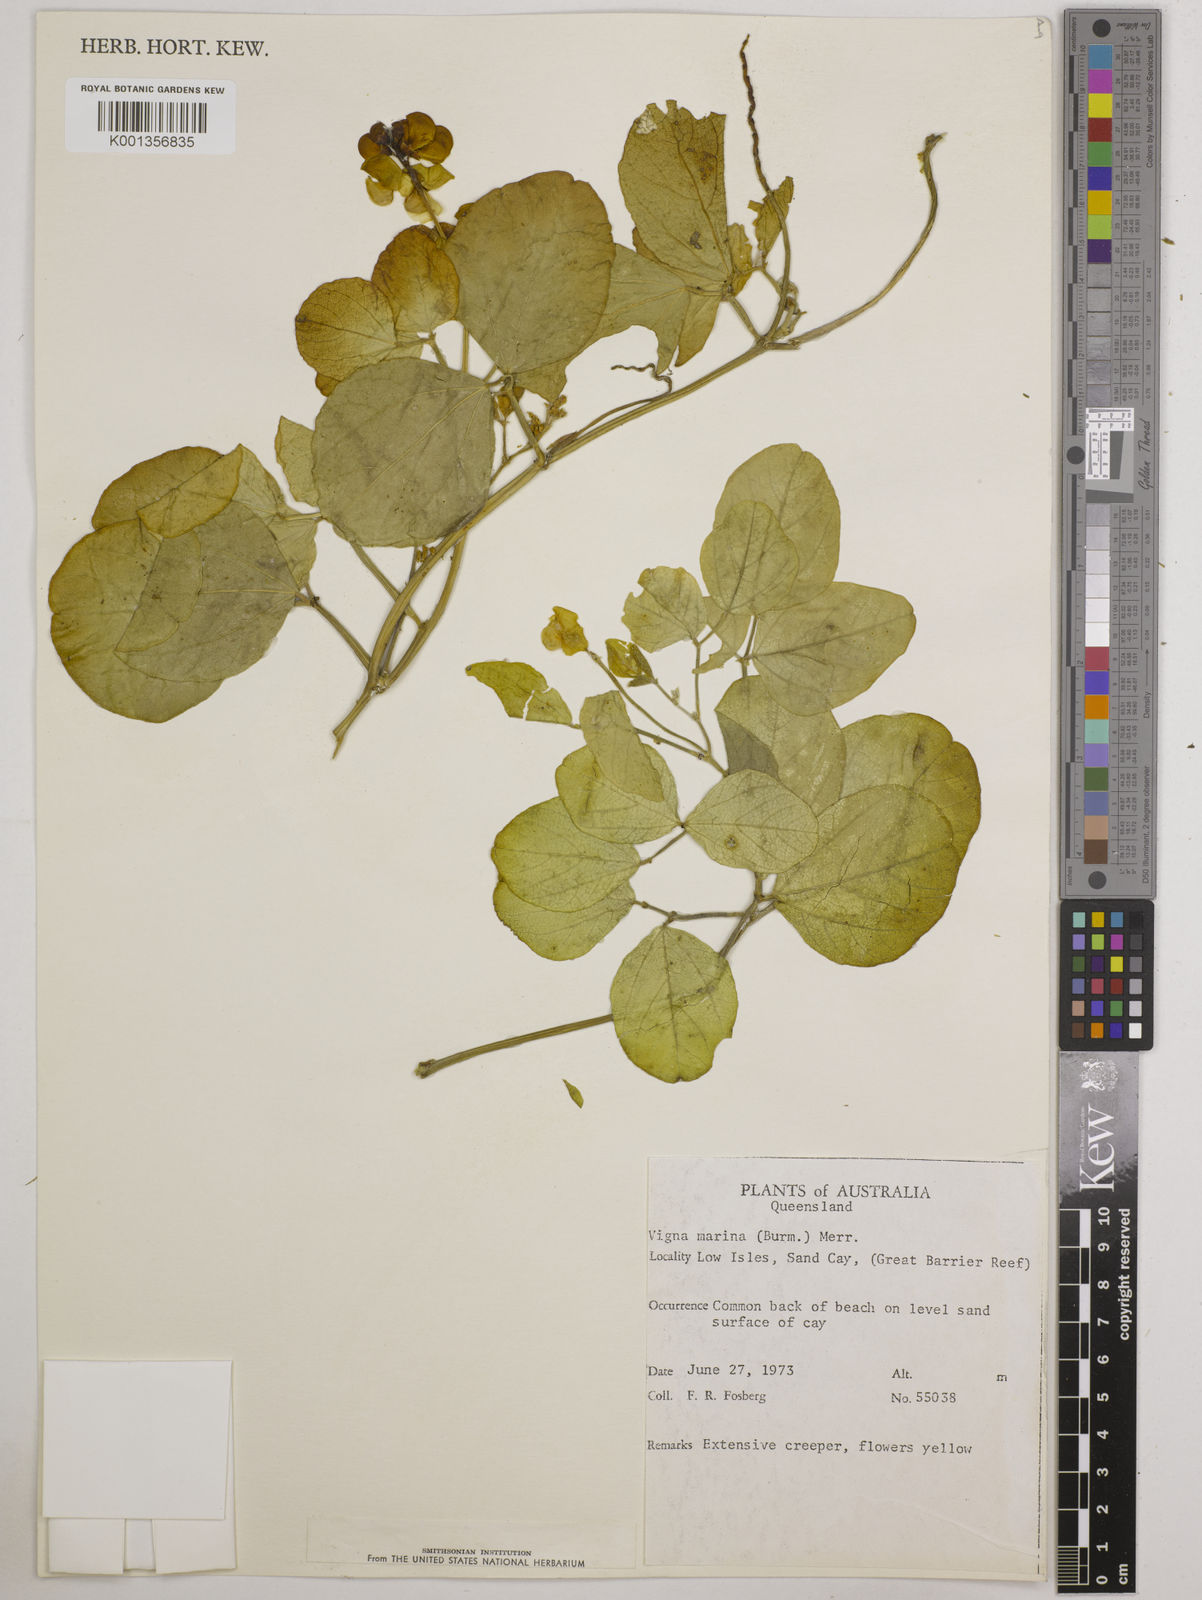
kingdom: Plantae
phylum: Tracheophyta
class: Magnoliopsida
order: Fabales
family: Fabaceae
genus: Vigna
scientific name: Vigna marina
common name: Dune-bean
